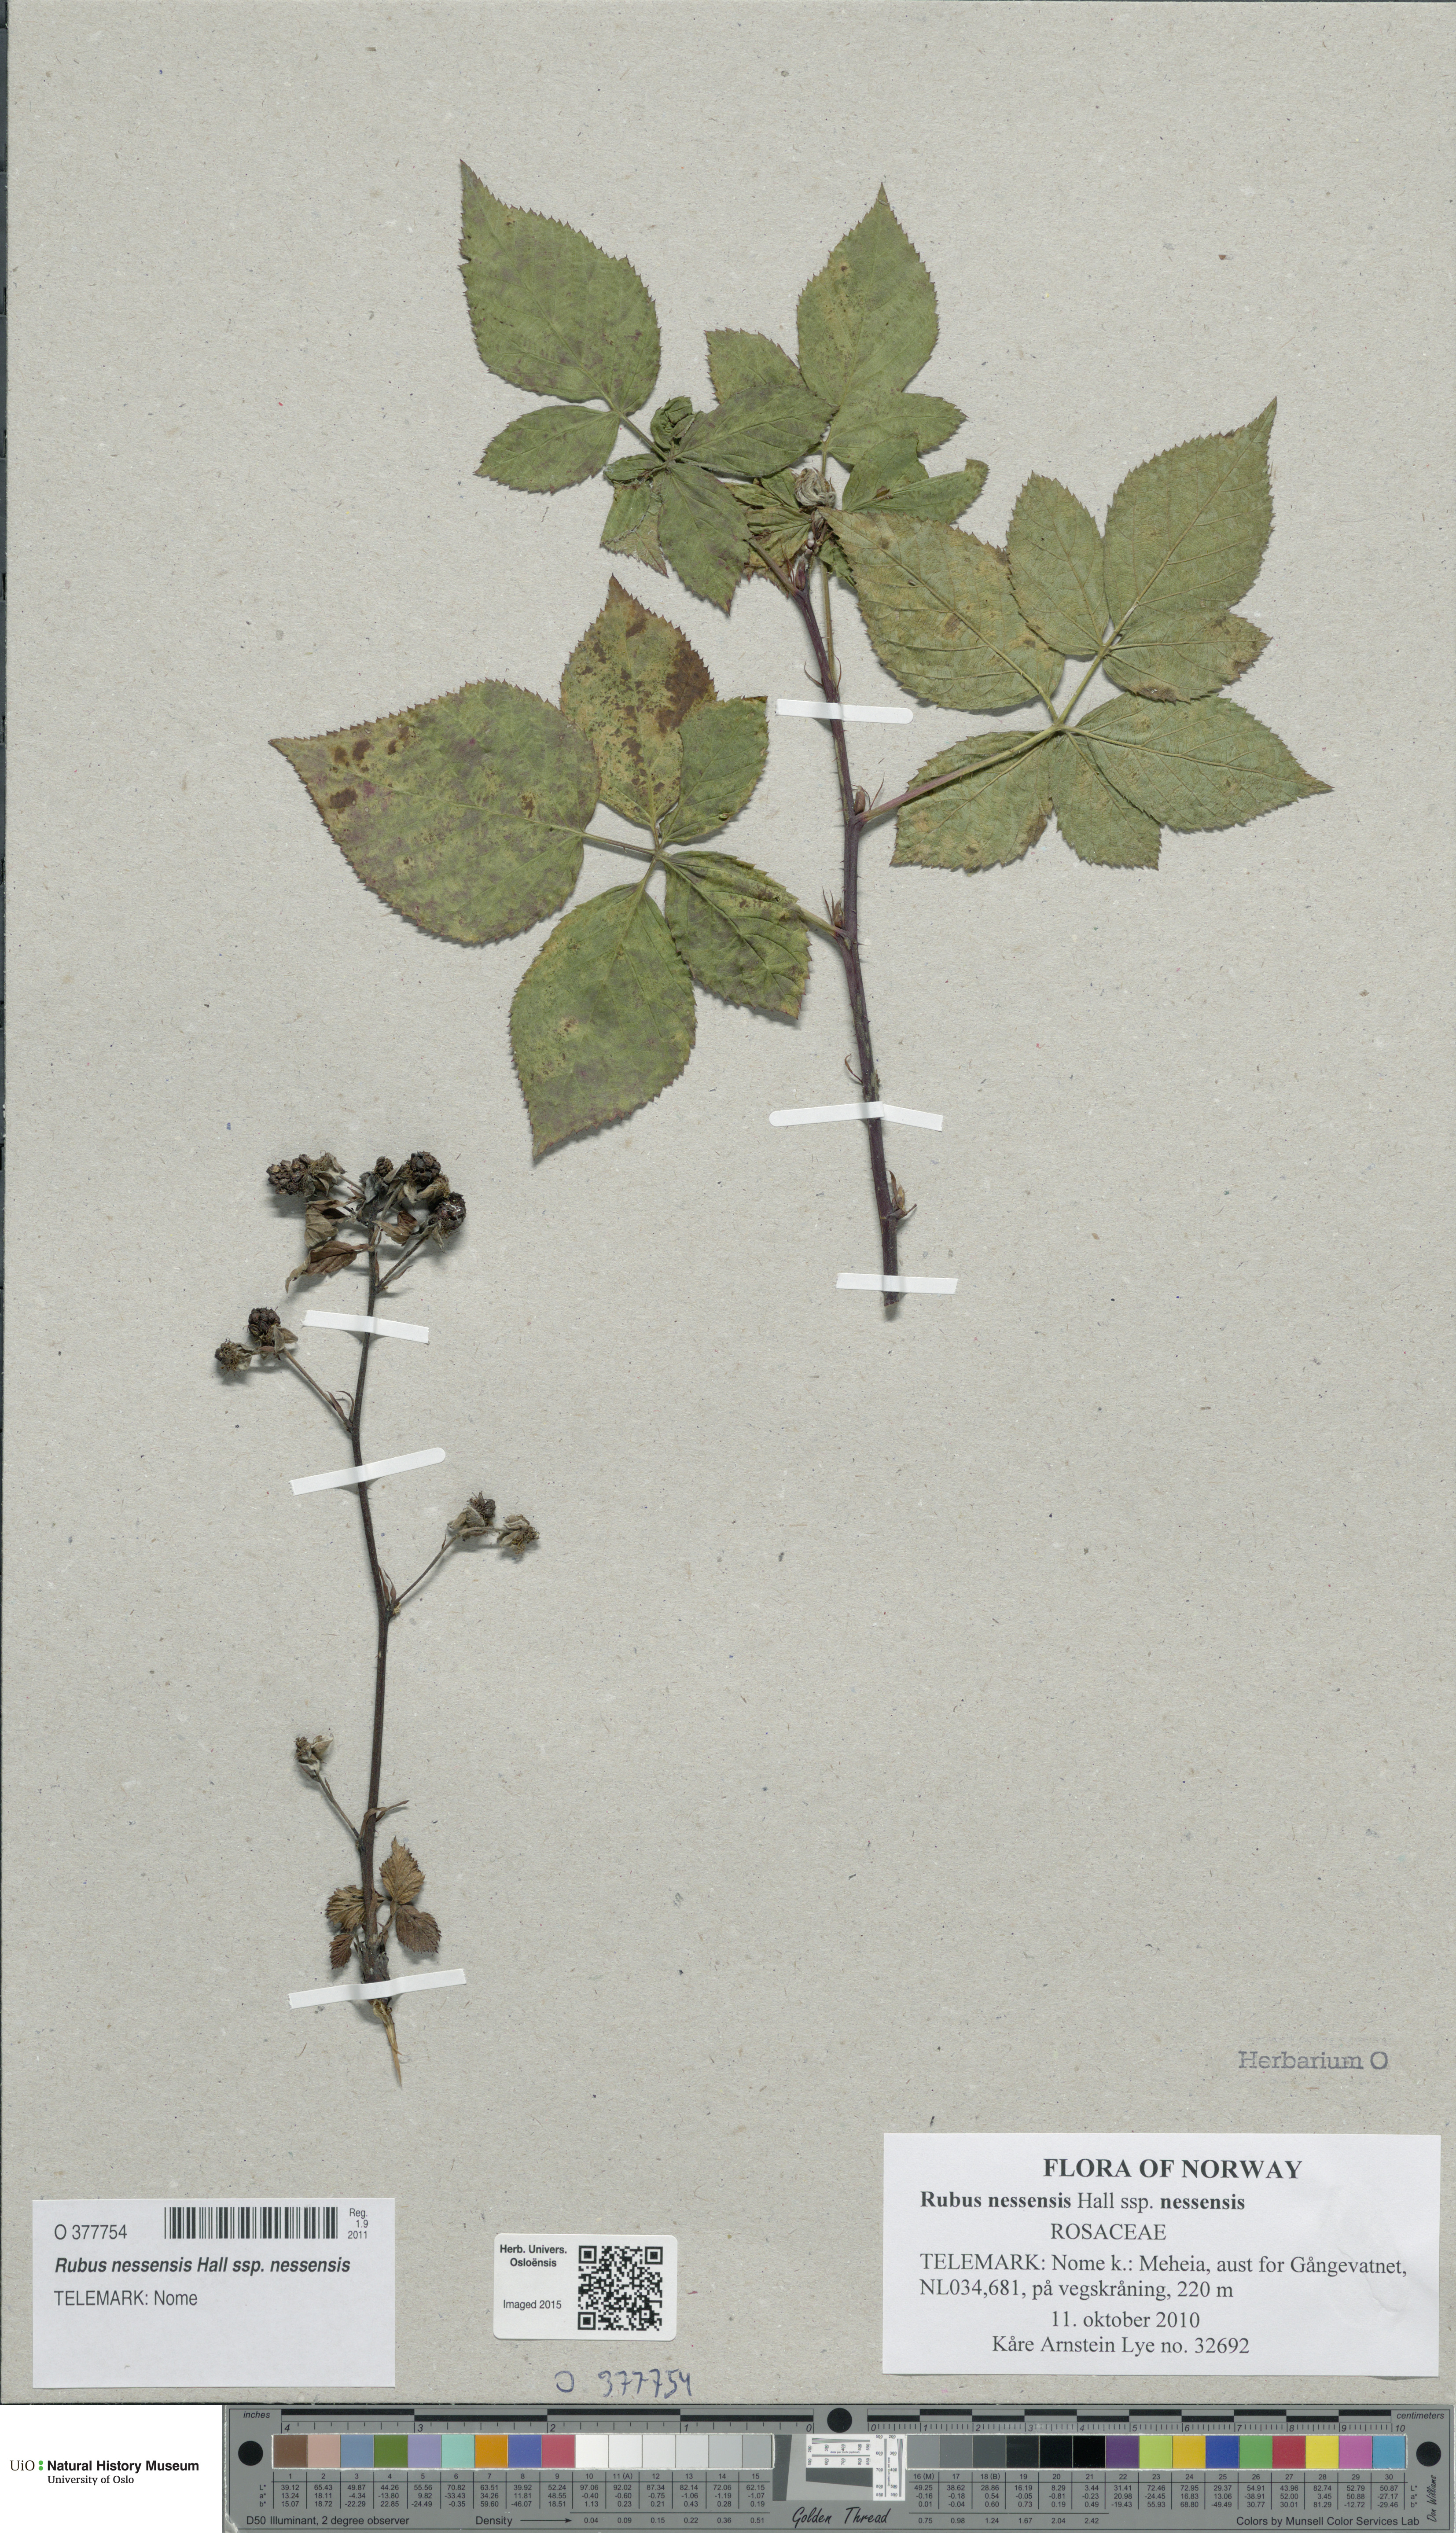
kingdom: Plantae
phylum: Tracheophyta
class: Magnoliopsida
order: Rosales
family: Rosaceae
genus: Rubus
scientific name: Rubus polonicus
